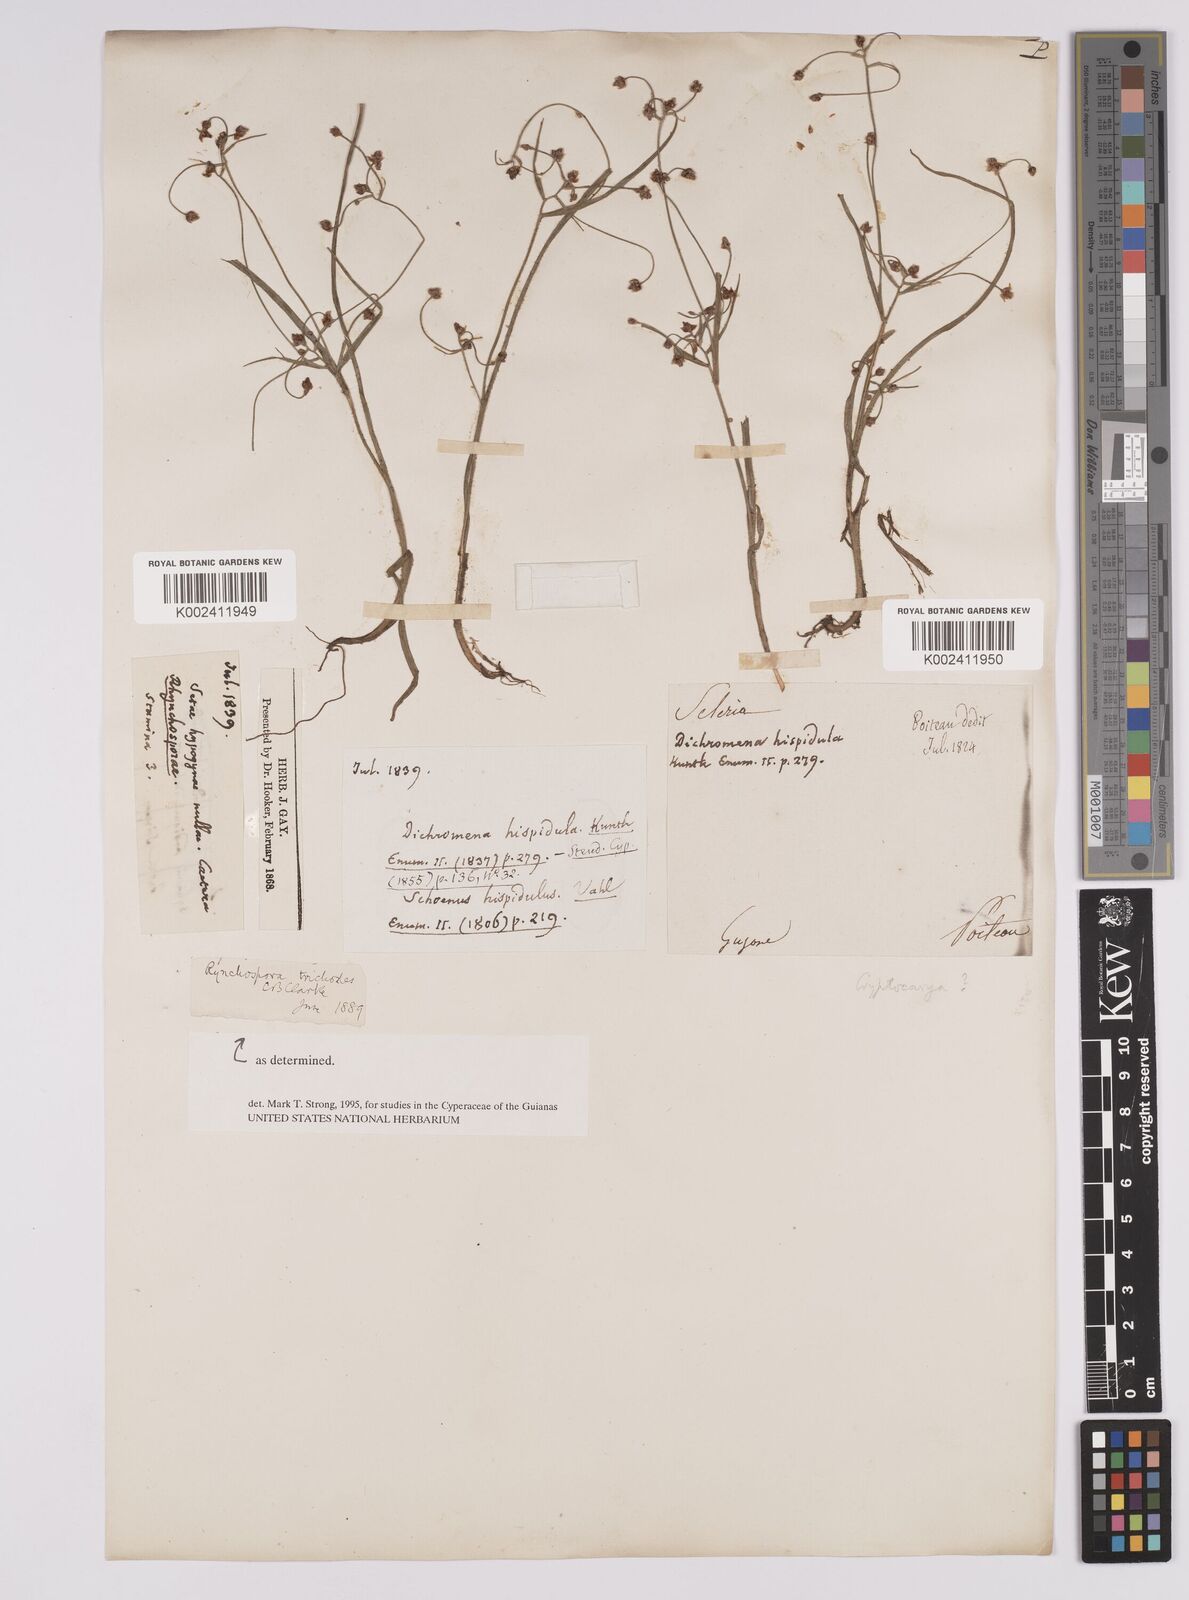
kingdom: Plantae
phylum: Tracheophyta
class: Liliopsida
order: Poales
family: Cyperaceae
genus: Rhynchospora
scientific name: Rhynchospora divaricata
